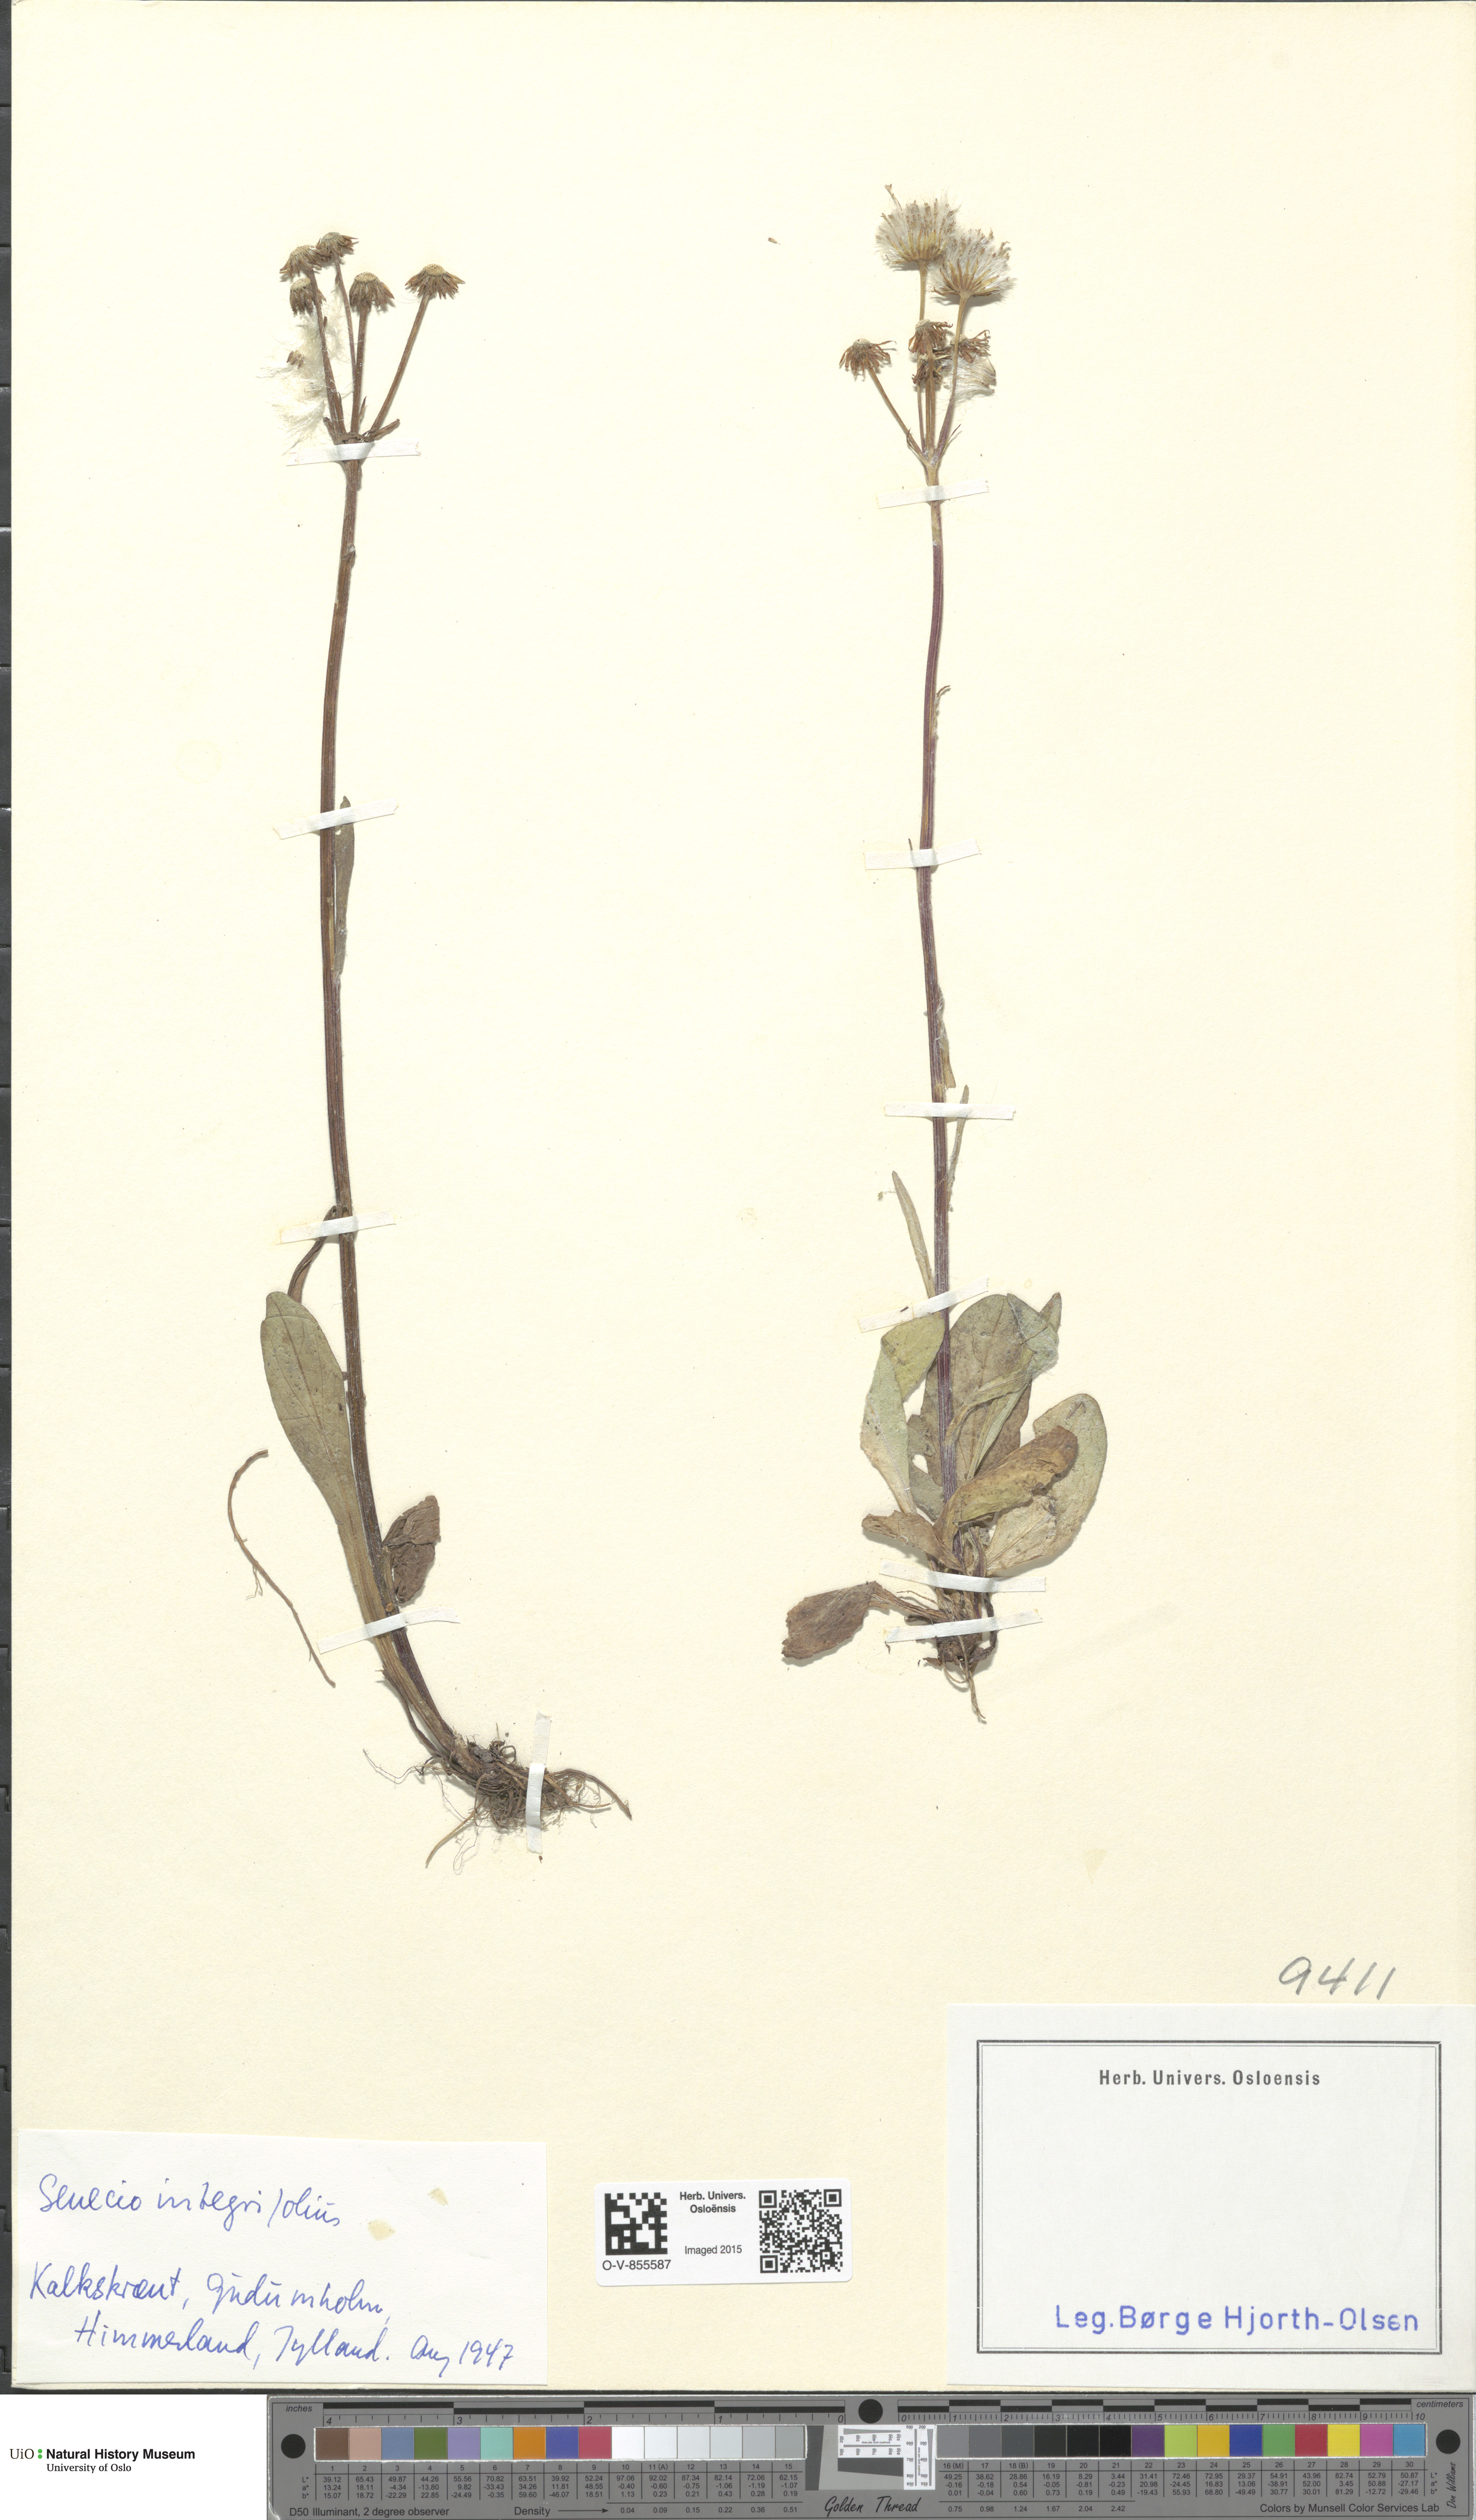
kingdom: Plantae
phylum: Tracheophyta
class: Magnoliopsida
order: Asterales
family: Asteraceae
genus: Tephroseris
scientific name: Tephroseris integrifolia
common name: Field fleawort
